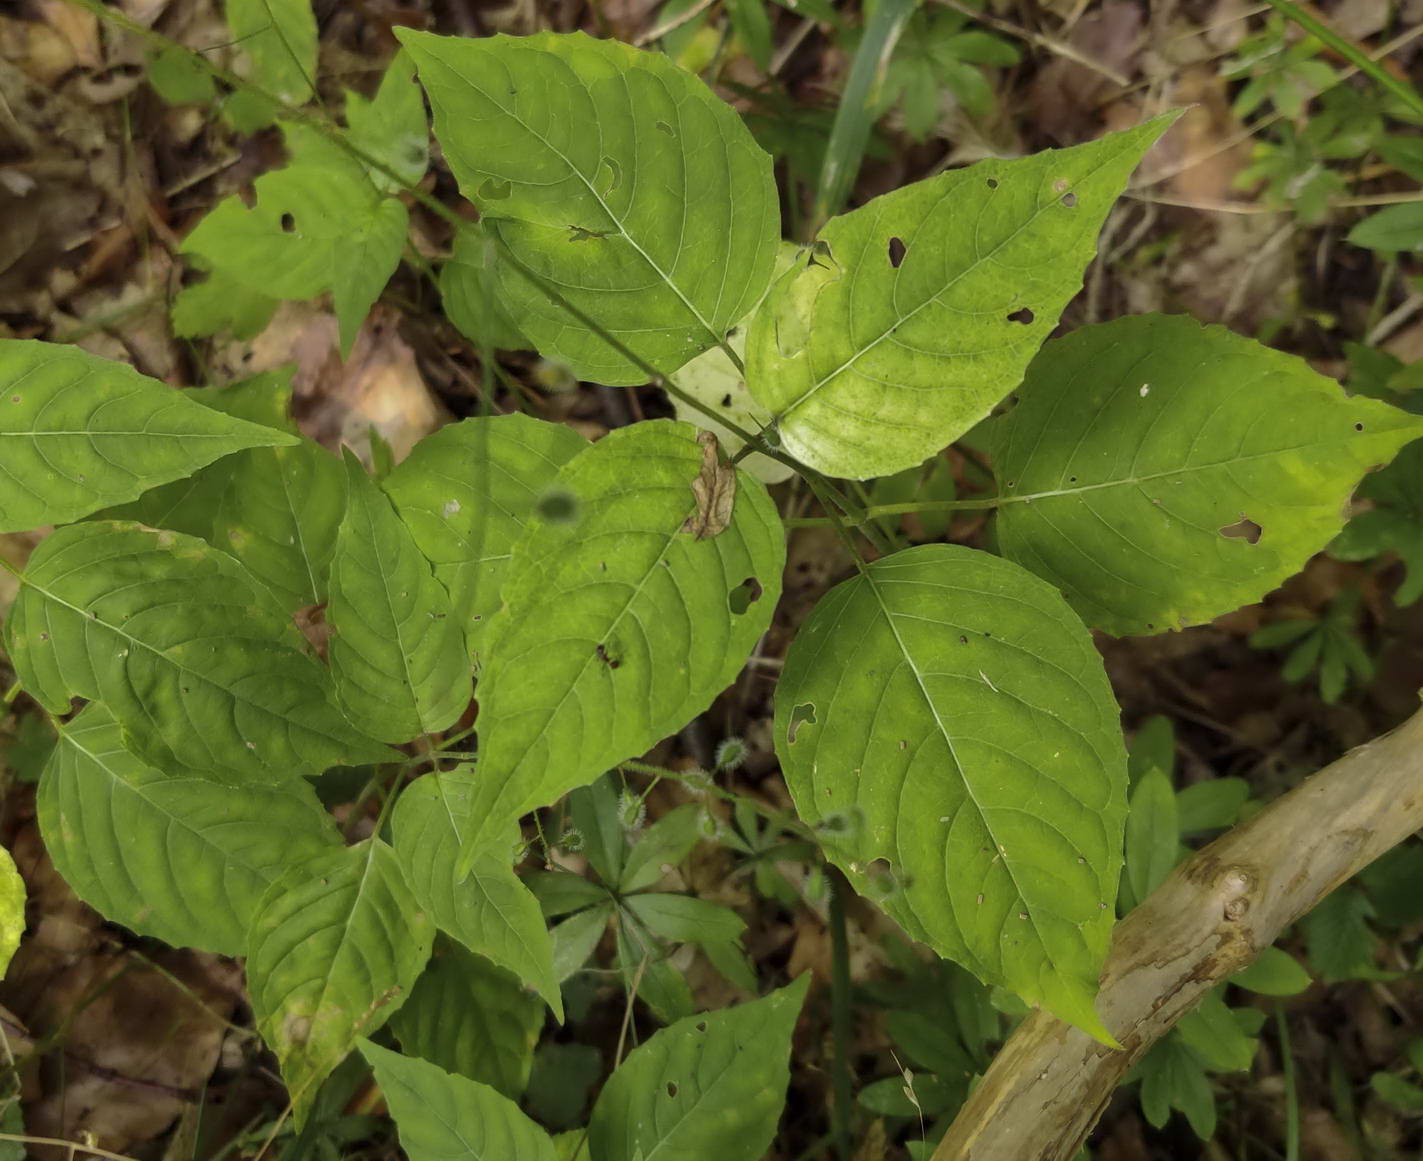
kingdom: Fungi
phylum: Basidiomycota
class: Pucciniomycetes
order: Pucciniales
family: Pucciniastraceae
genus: Pucciniastrum
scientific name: Pucciniastrum circaeae
